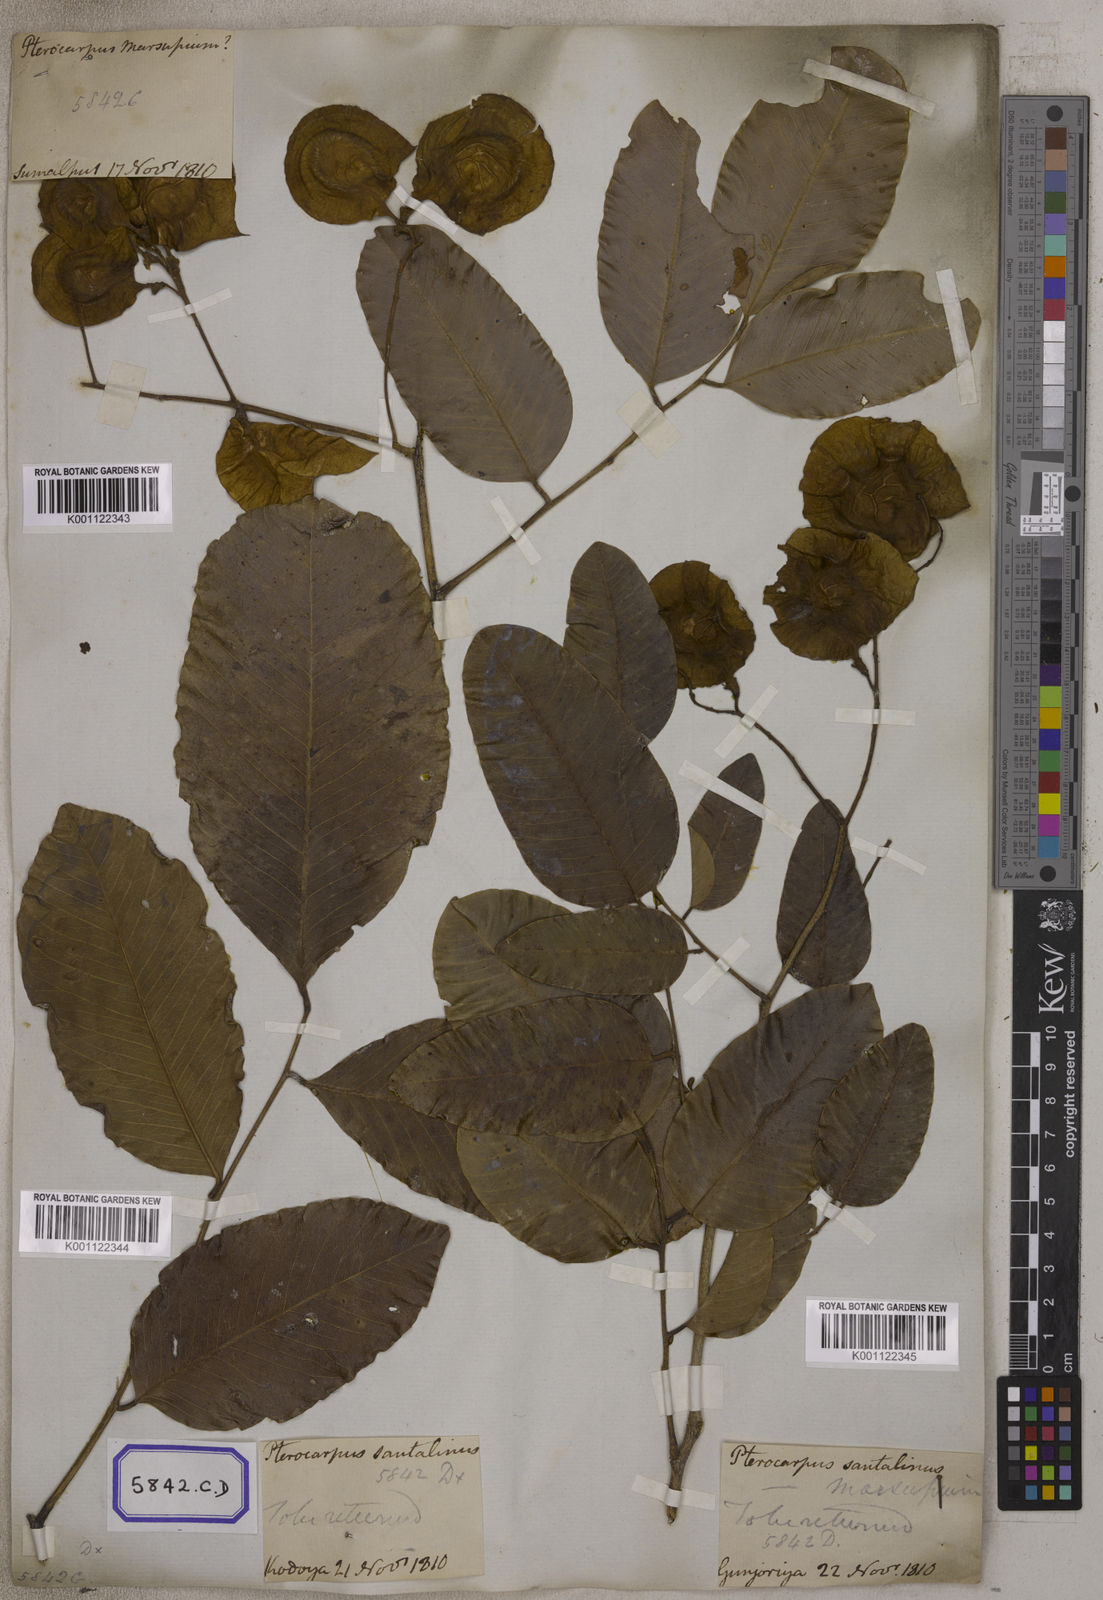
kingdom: Plantae
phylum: Tracheophyta
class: Magnoliopsida
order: Fabales
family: Fabaceae
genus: Pterocarpus
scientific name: Pterocarpus marsupium
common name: East indian/malabar kino
